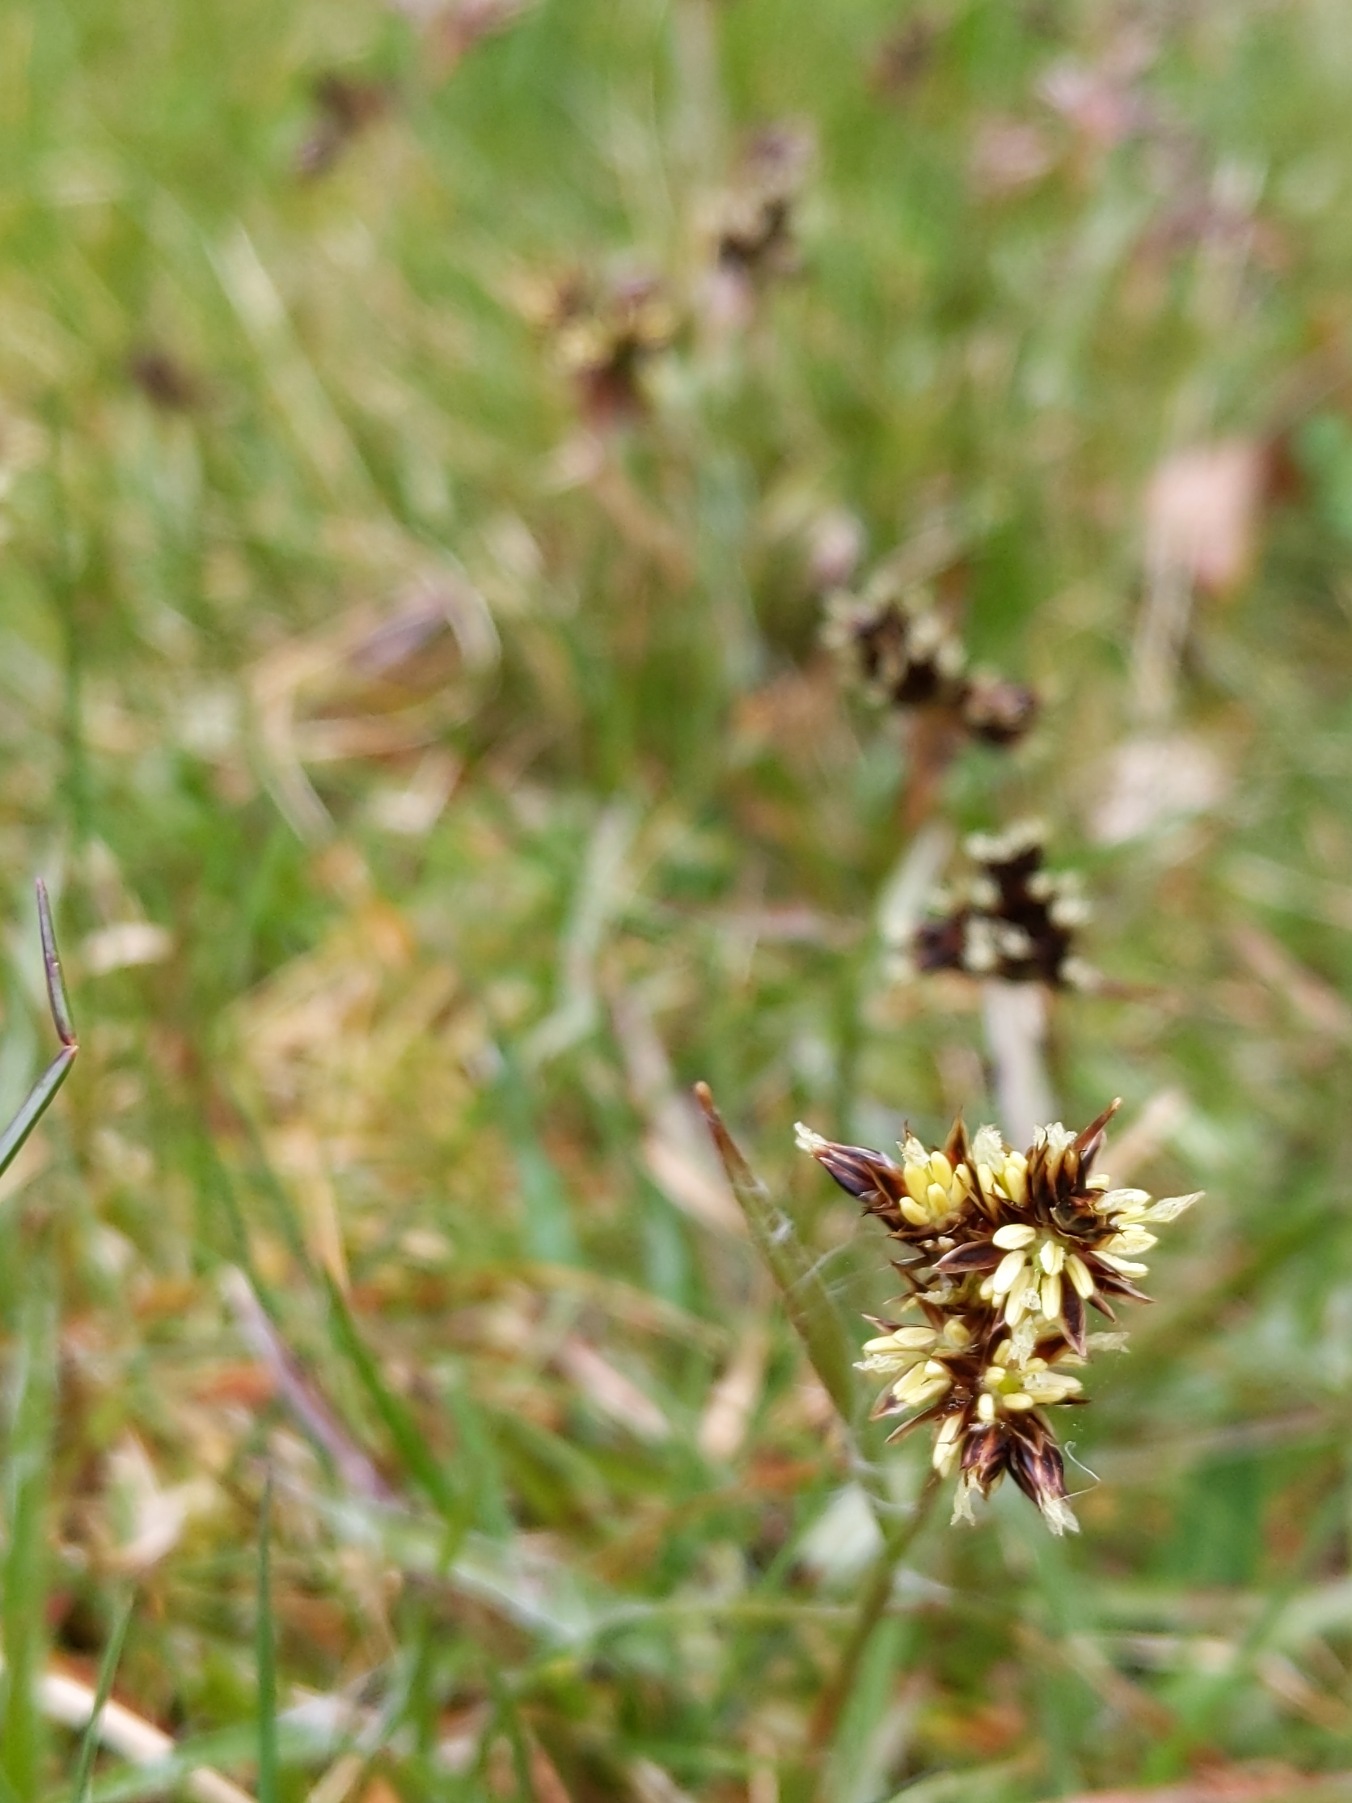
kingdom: Plantae
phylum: Tracheophyta
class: Liliopsida
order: Poales
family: Juncaceae
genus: Luzula
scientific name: Luzula campestris
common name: Mark-frytle
